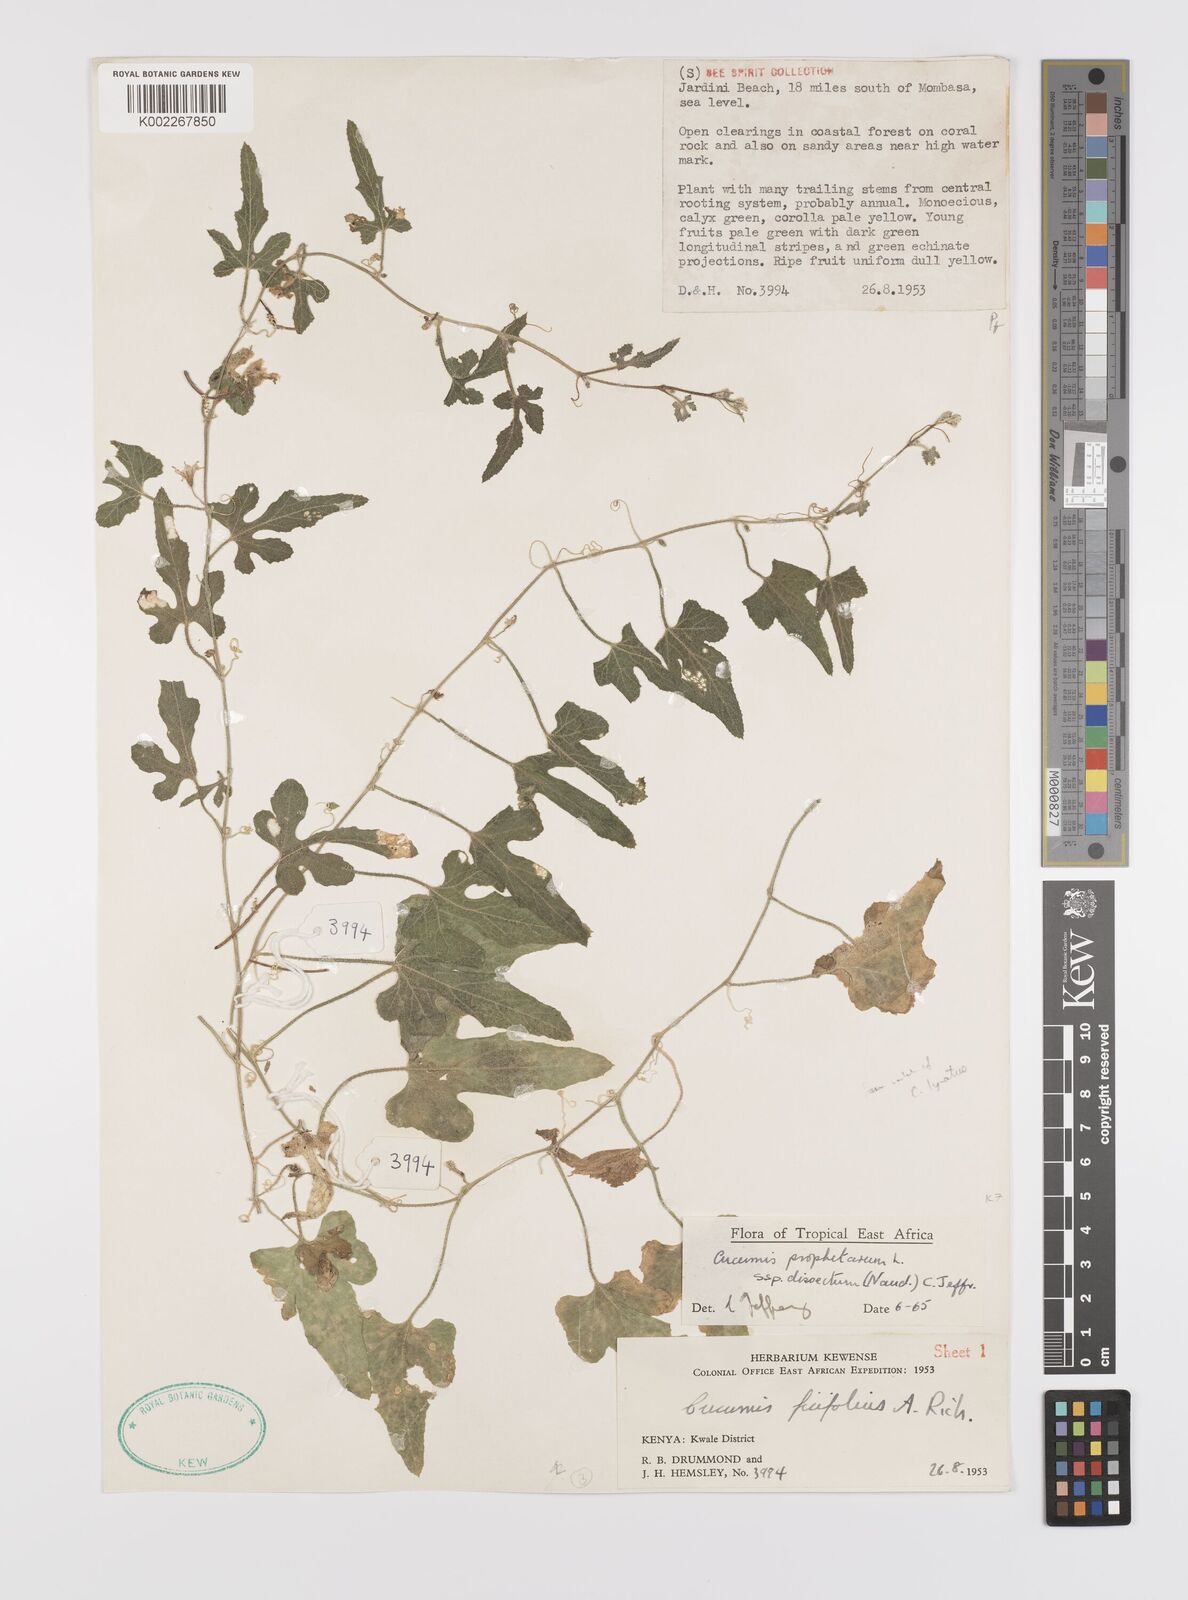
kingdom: Plantae
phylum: Tracheophyta
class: Magnoliopsida
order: Cucurbitales
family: Cucurbitaceae
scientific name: Cucurbitaceae
